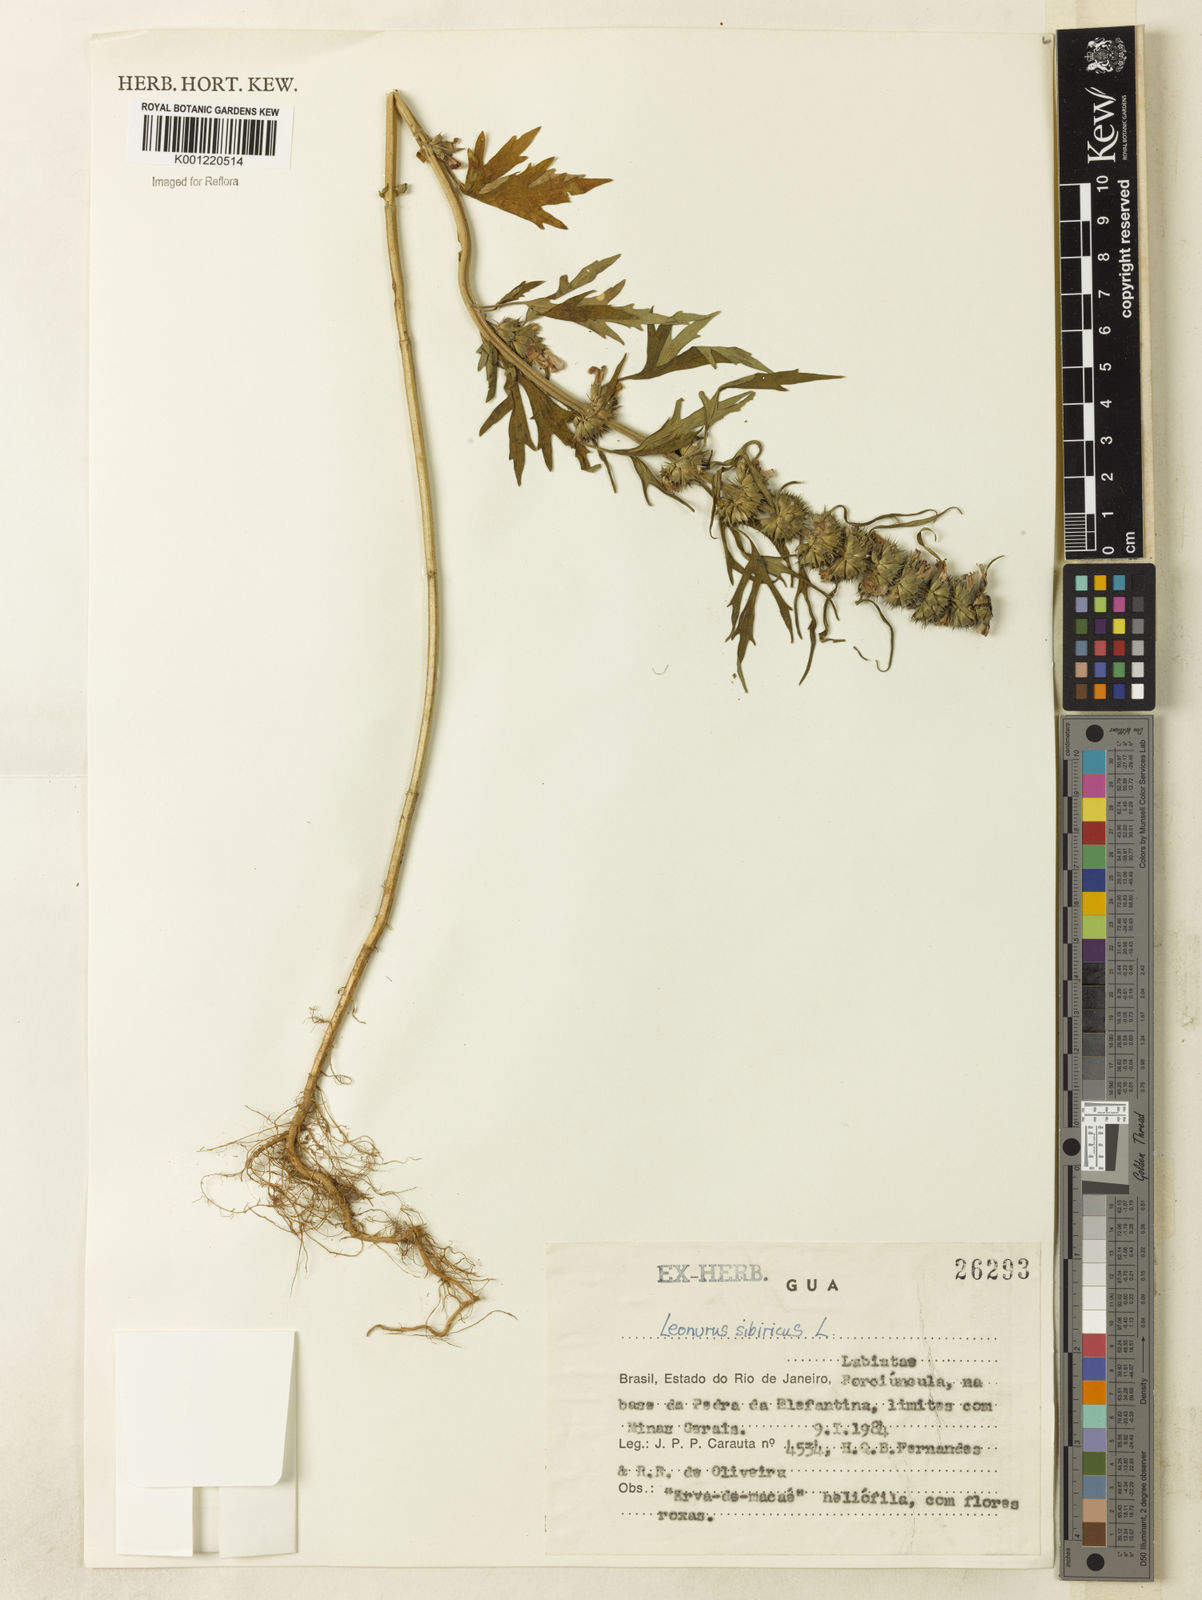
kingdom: Plantae
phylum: Tracheophyta
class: Magnoliopsida
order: Lamiales
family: Lamiaceae
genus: Leonurus
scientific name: Leonurus japonicus
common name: Honeyweed
